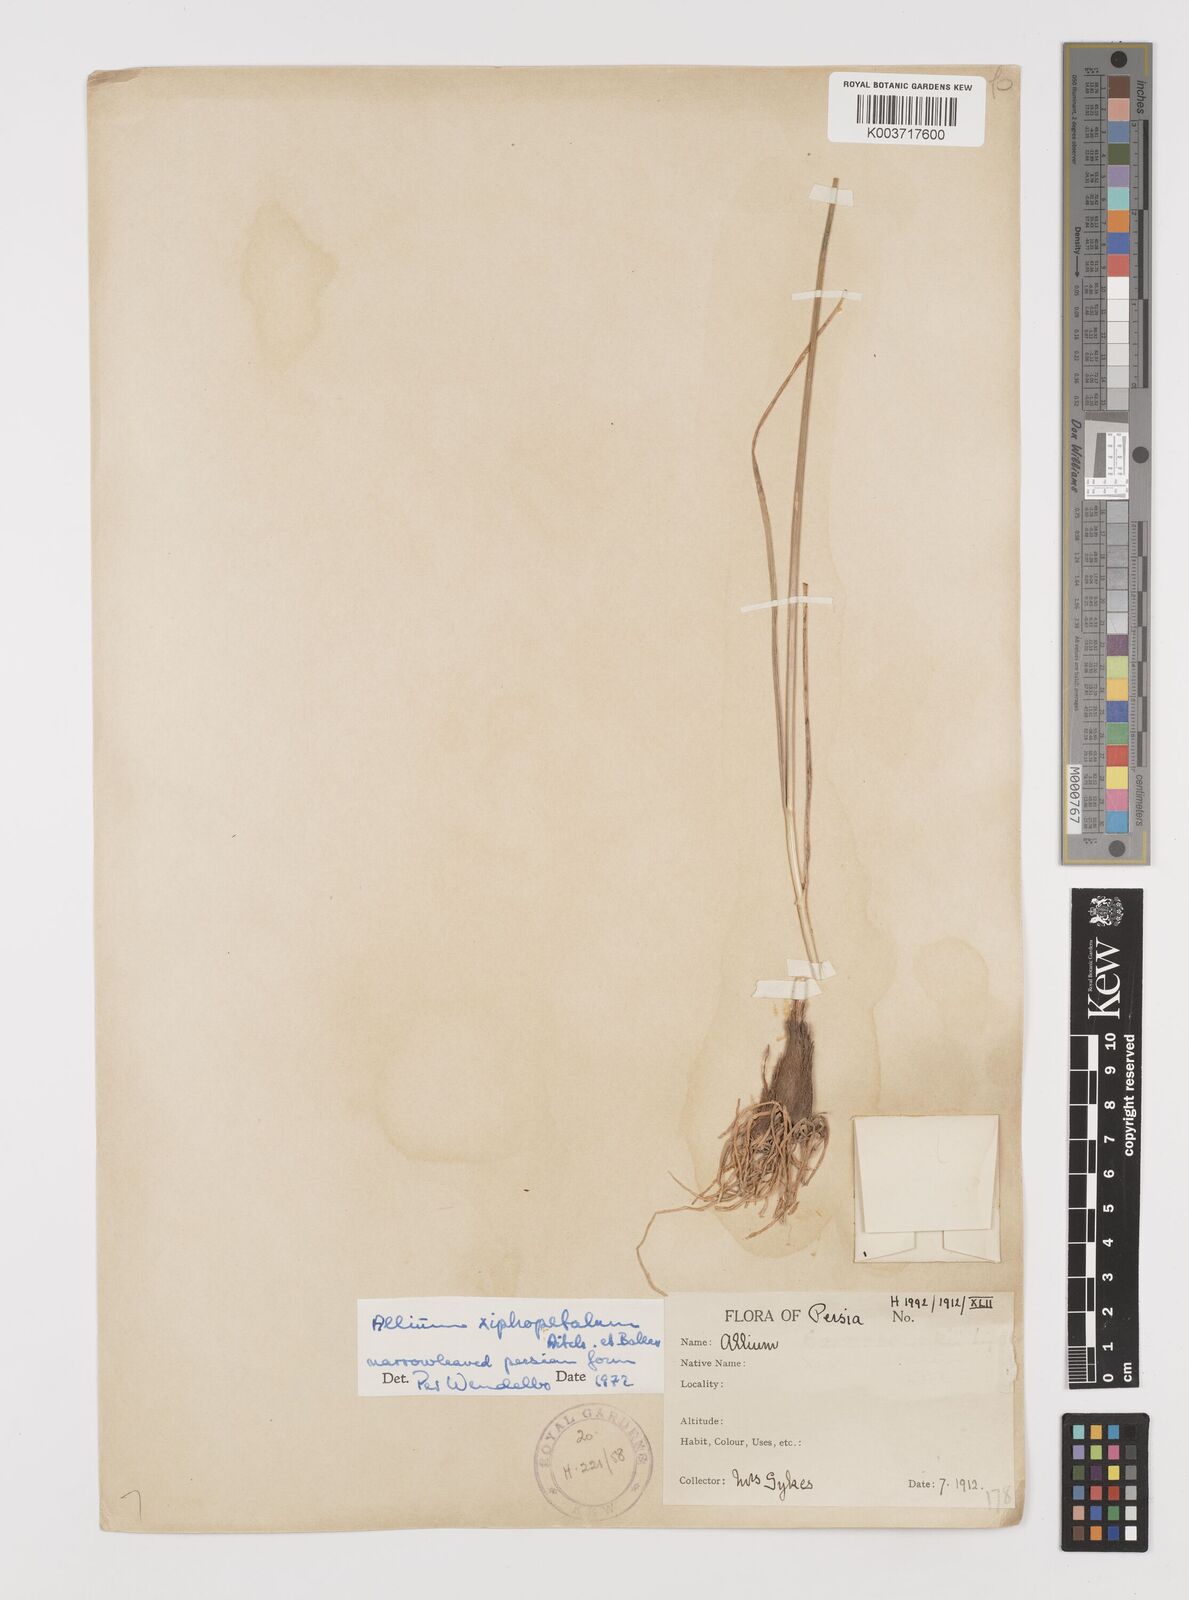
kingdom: Plantae
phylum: Tracheophyta
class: Liliopsida
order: Asparagales
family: Amaryllidaceae
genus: Allium
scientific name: Allium xiphopetalum
